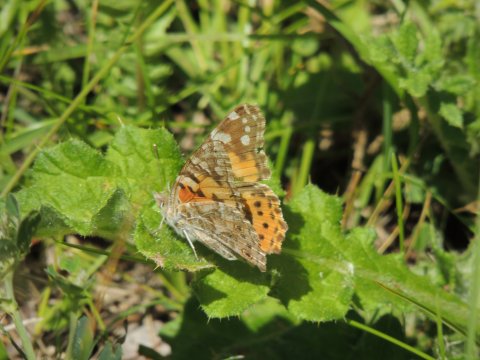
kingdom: Animalia
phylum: Arthropoda
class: Insecta
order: Lepidoptera
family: Nymphalidae
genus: Vanessa
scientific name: Vanessa cardui
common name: Painted Lady
